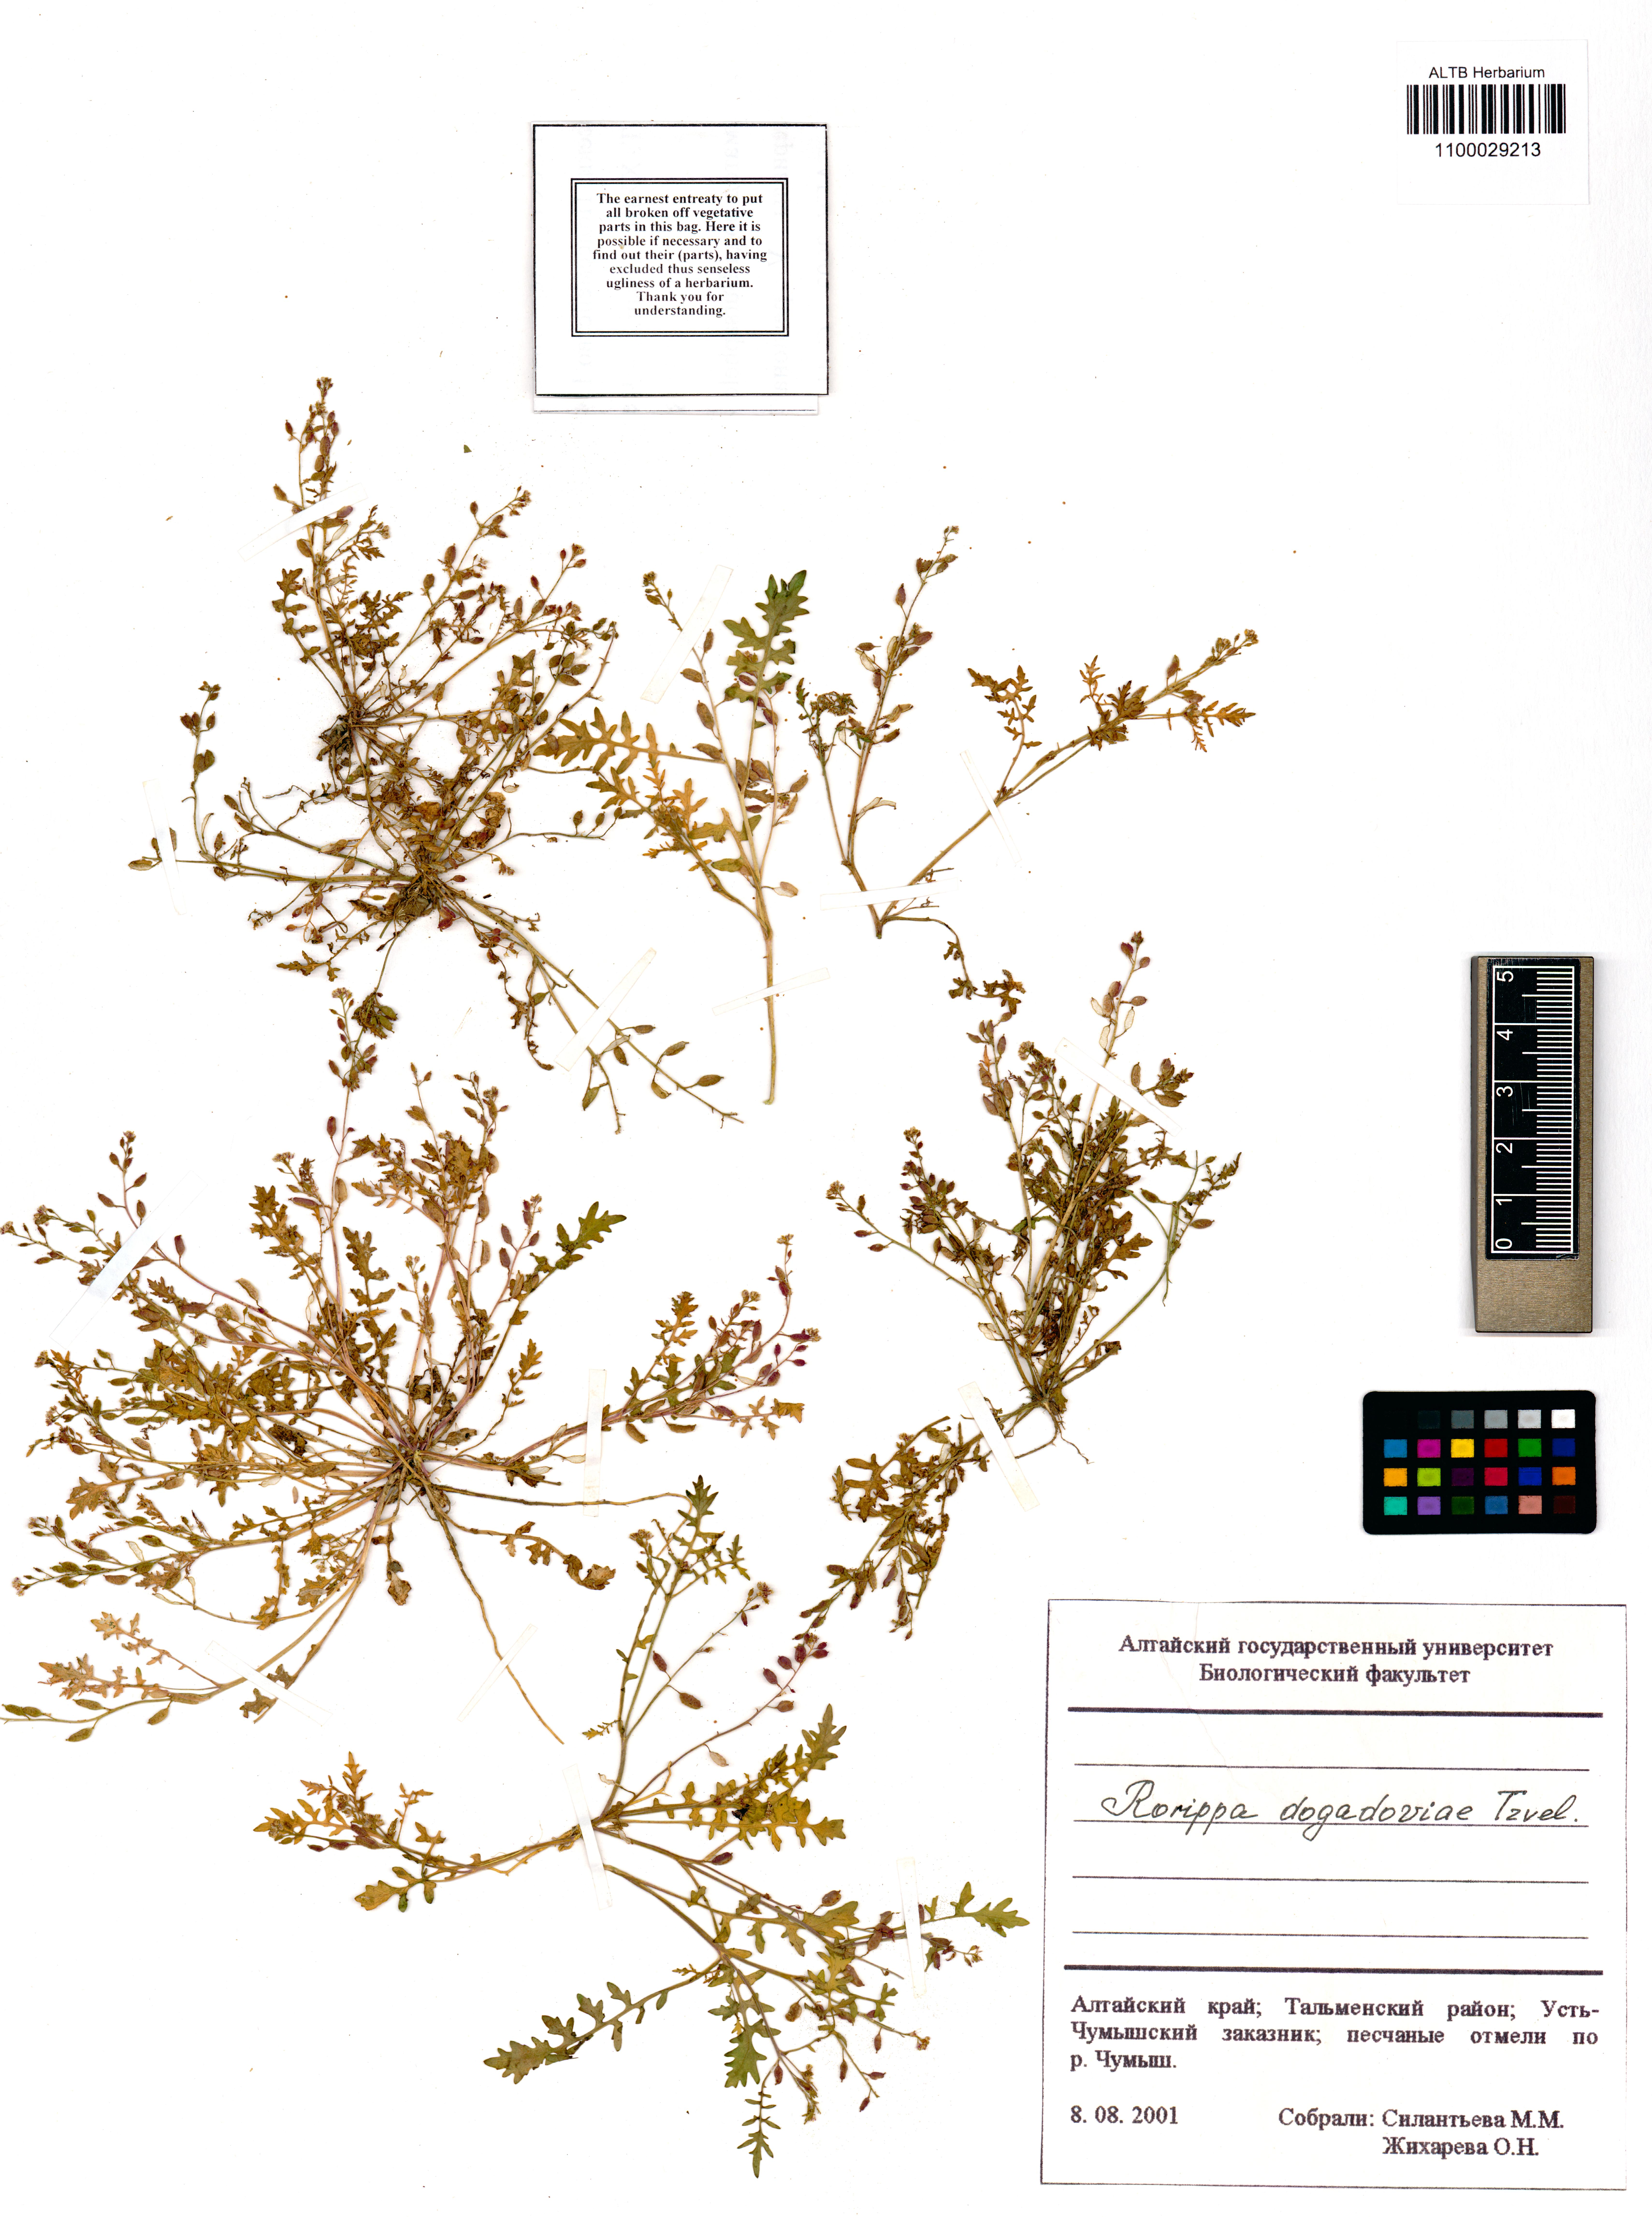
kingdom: Plantae
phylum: Tracheophyta
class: Magnoliopsida
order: Brassicales
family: Brassicaceae
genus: Rorippa
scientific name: Rorippa islandica
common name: Marsh cress
